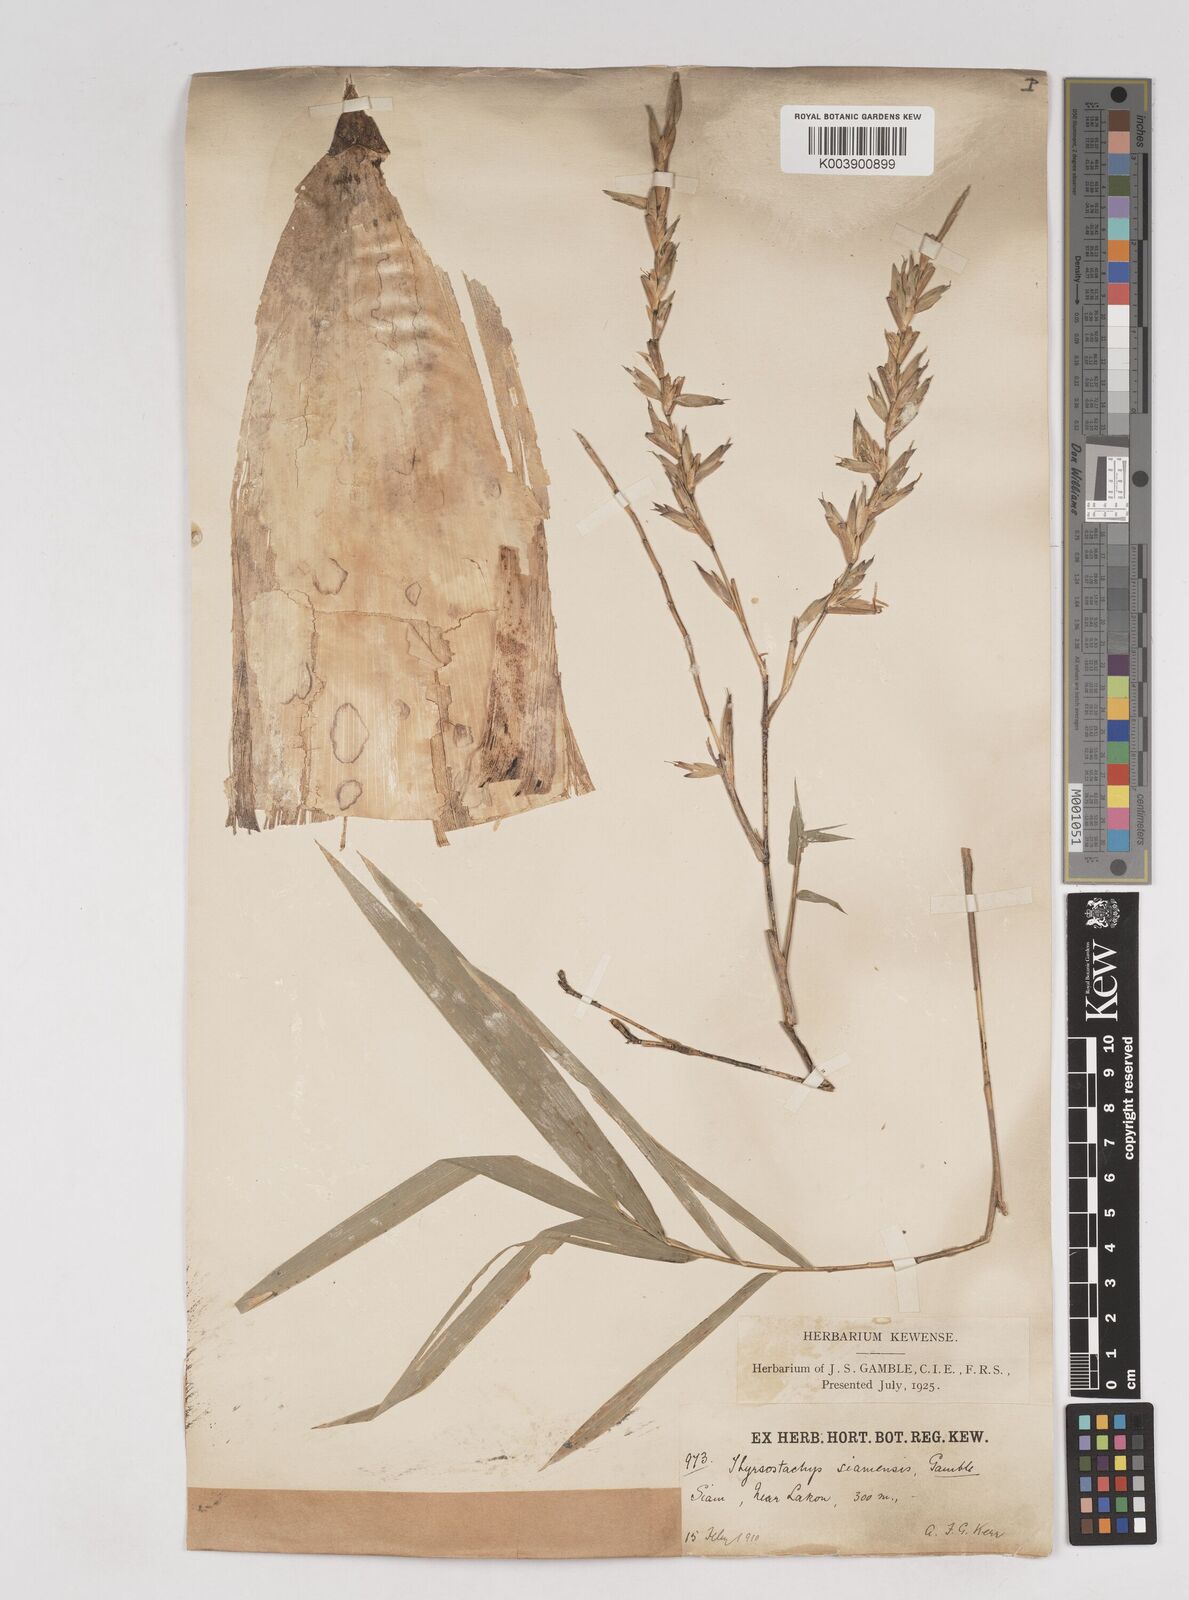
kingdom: Plantae
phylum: Tracheophyta
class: Liliopsida
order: Poales
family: Poaceae
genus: Thyrsostachys
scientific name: Thyrsostachys siamensis
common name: Thailand bamboo
